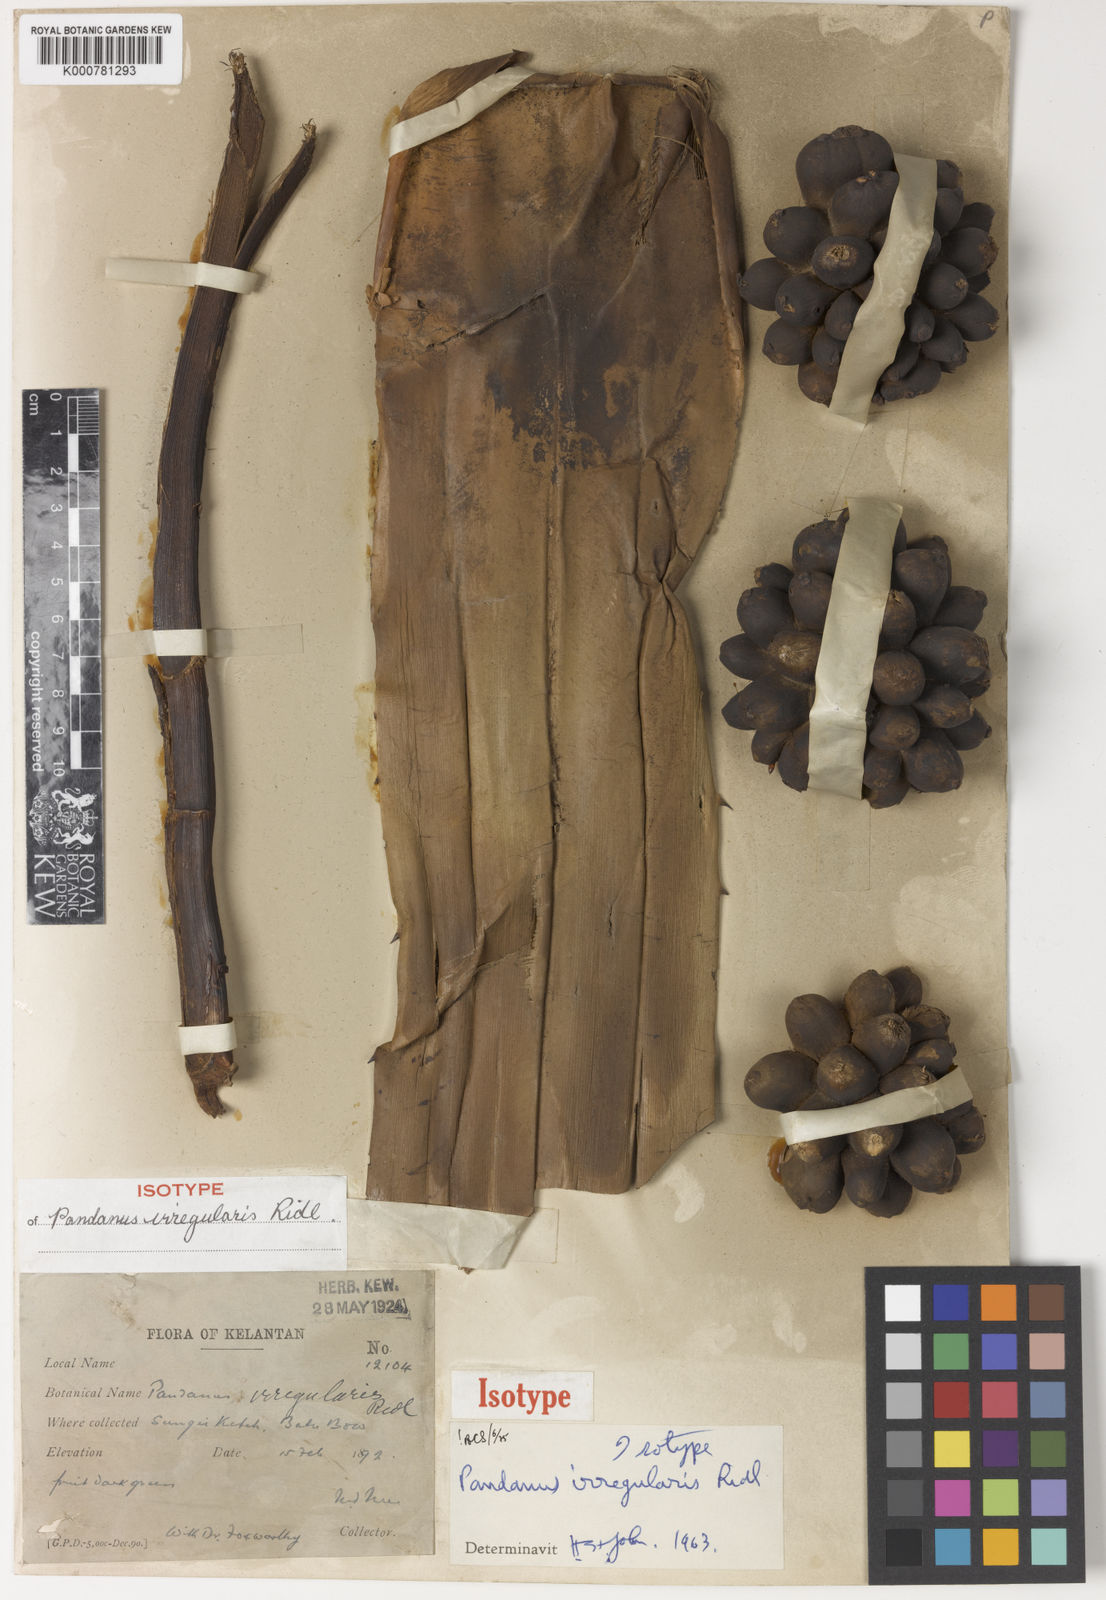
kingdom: Plantae
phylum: Tracheophyta
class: Liliopsida
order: Pandanales
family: Pandanaceae
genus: Pandanus
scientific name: Pandanus irregularis
